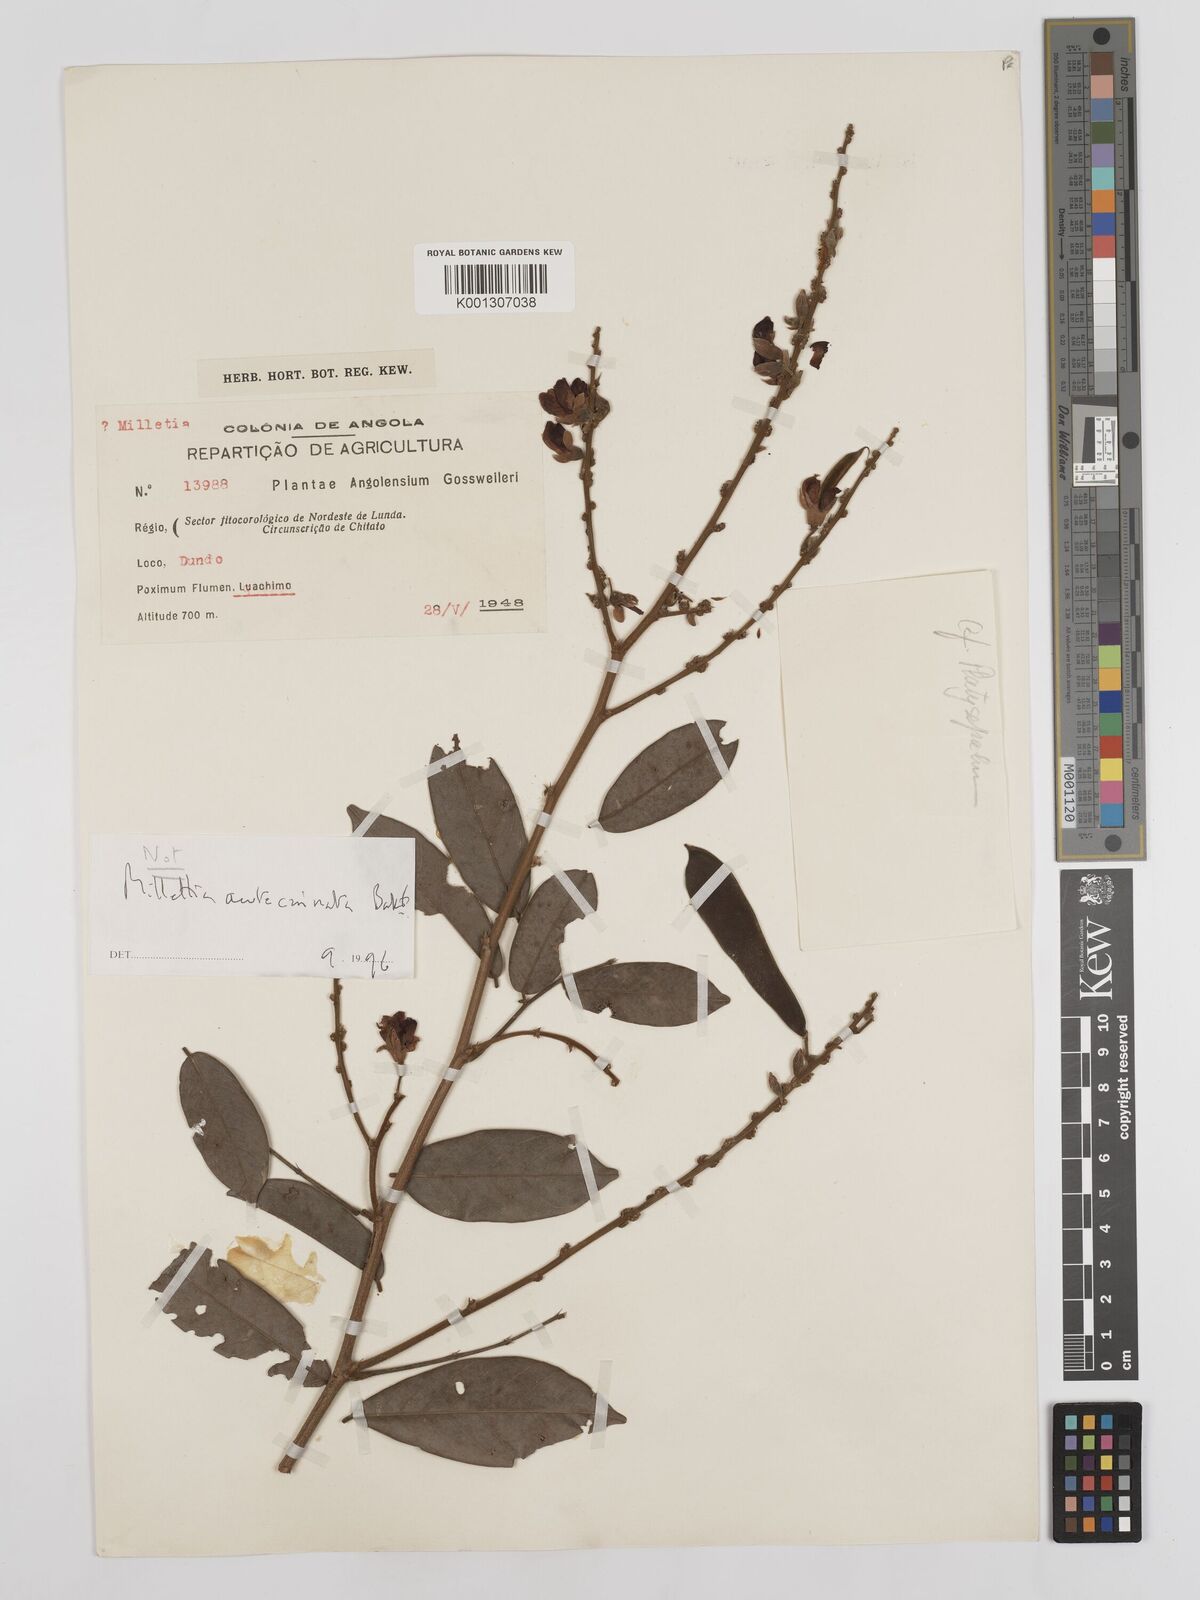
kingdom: Plantae
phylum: Tracheophyta
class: Magnoliopsida
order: Fabales
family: Fabaceae
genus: Millettia
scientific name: Millettia
